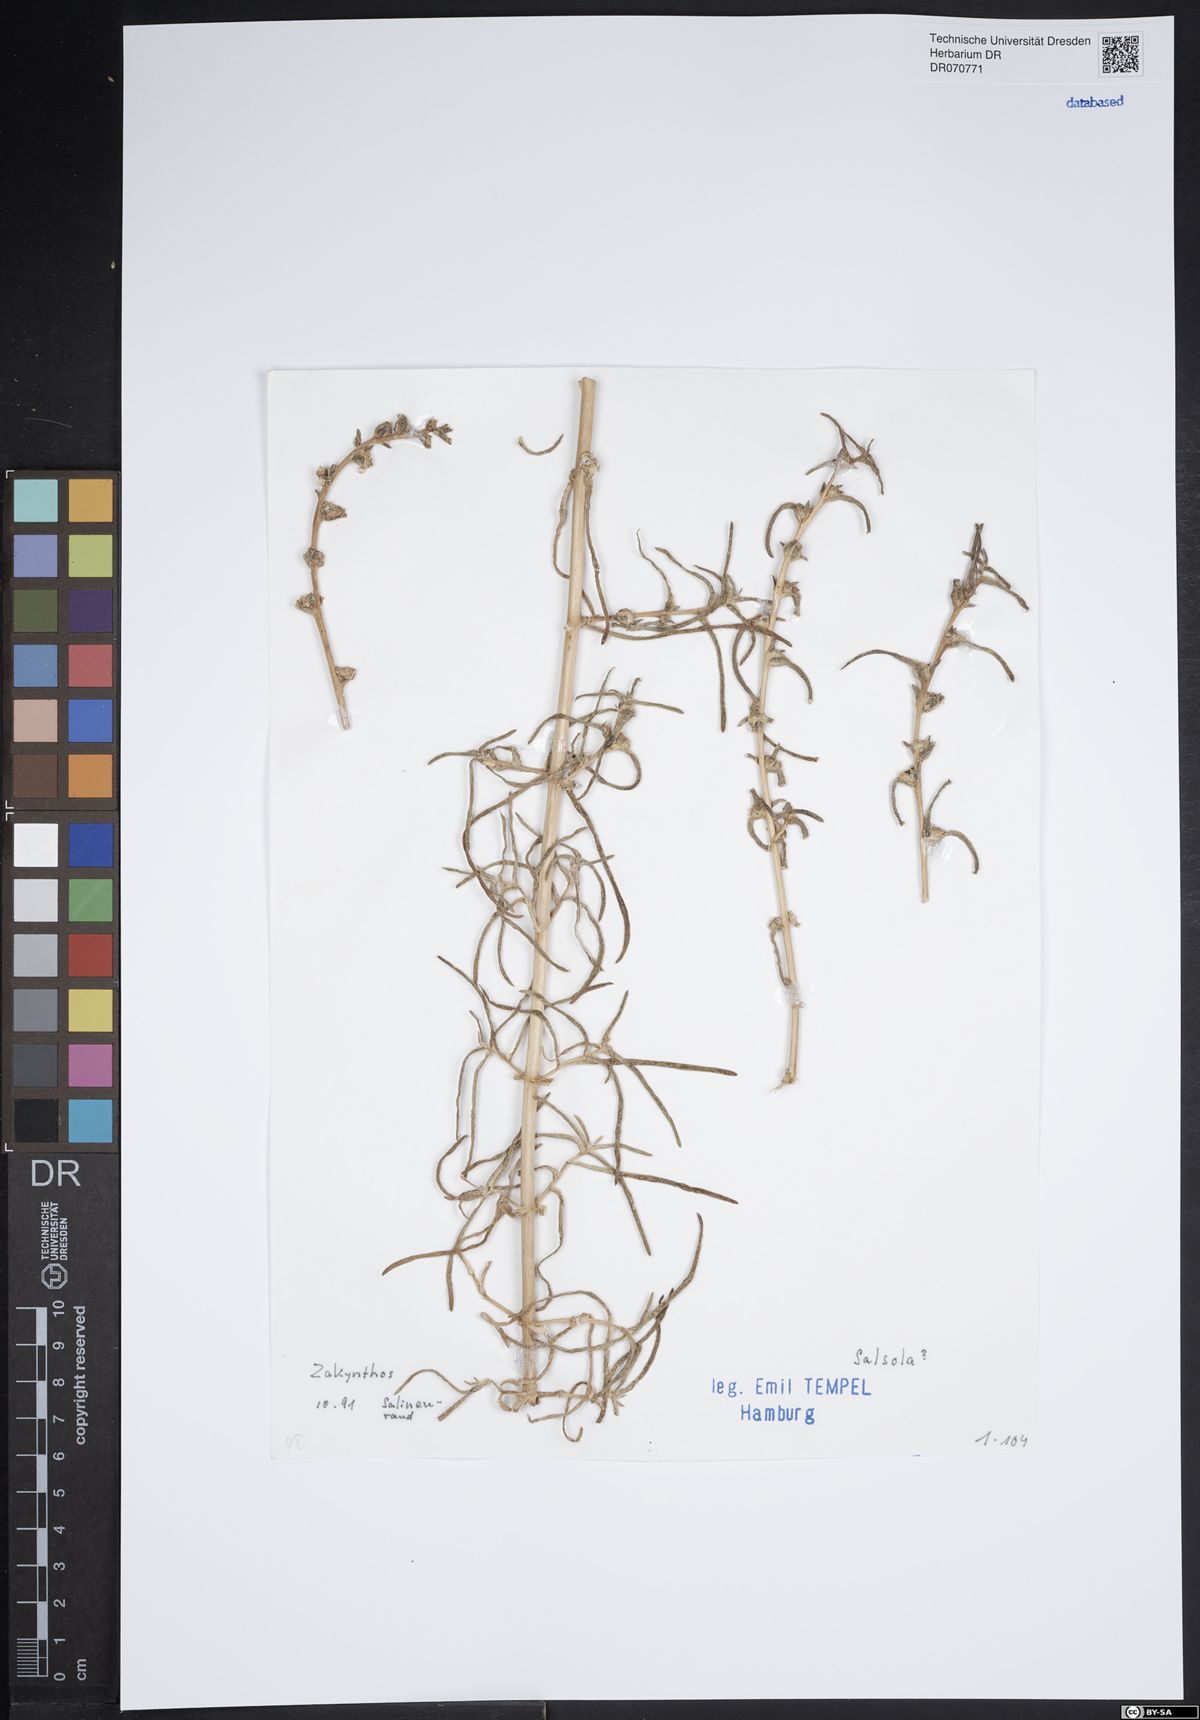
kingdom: Plantae
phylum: Tracheophyta
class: Magnoliopsida
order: Caryophyllales
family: Amaranthaceae
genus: Salsola
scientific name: Salsola
